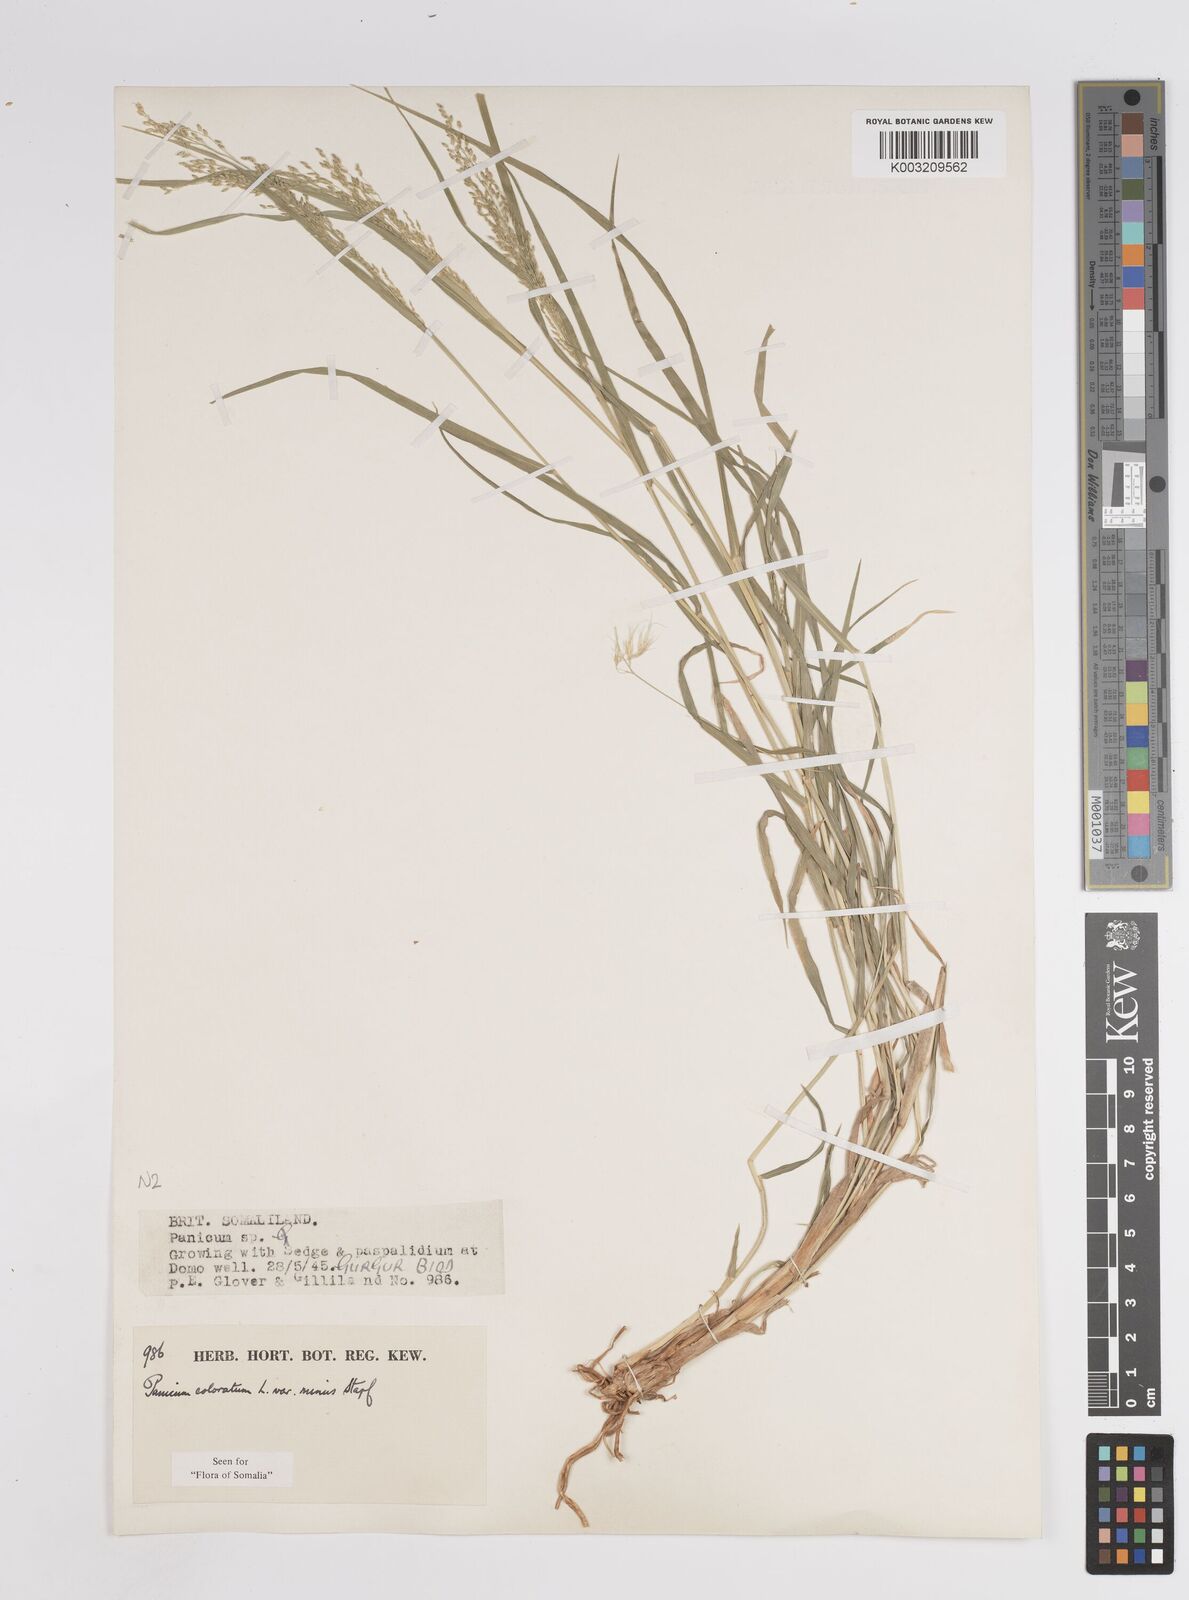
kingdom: Plantae
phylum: Tracheophyta
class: Liliopsida
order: Poales
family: Poaceae
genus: Panicum
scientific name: Panicum coloratum
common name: Kleingrass
